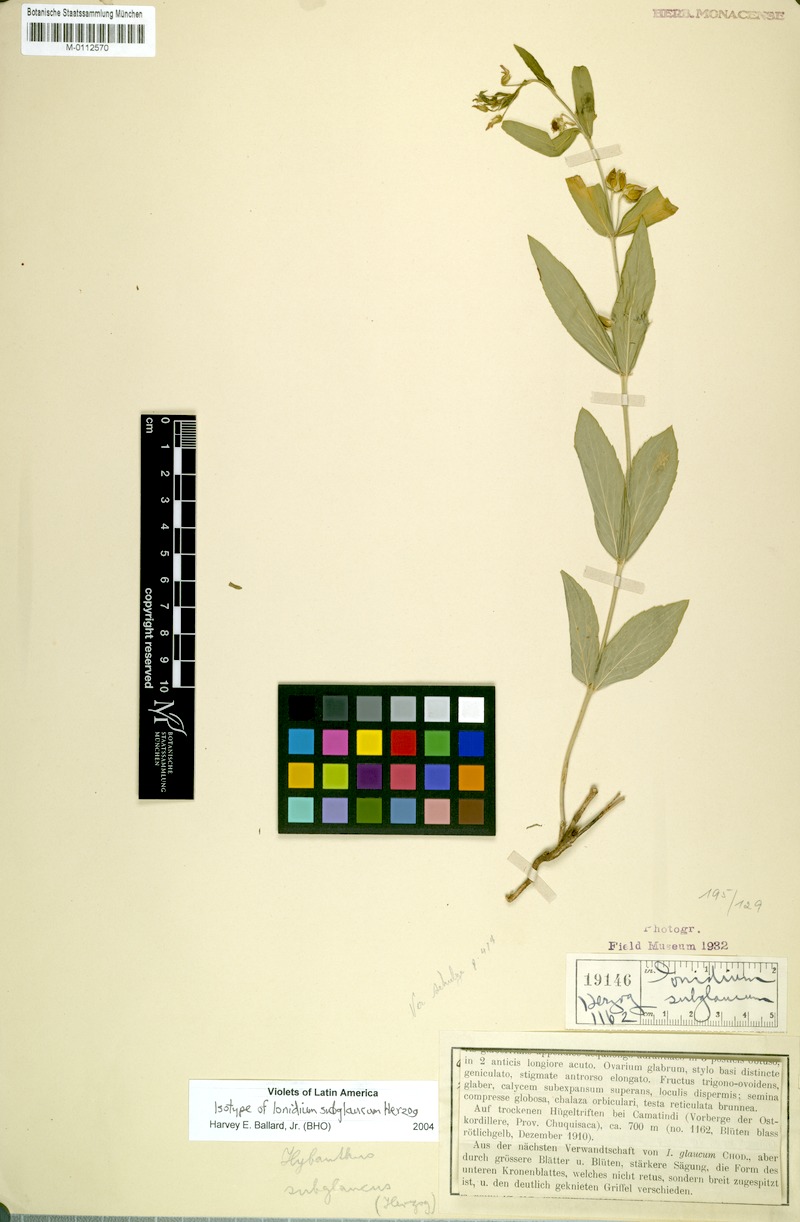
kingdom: Plantae
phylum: Tracheophyta
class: Magnoliopsida
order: Malpighiales
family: Violaceae
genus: Pigea
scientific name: Pigea enneasperma
